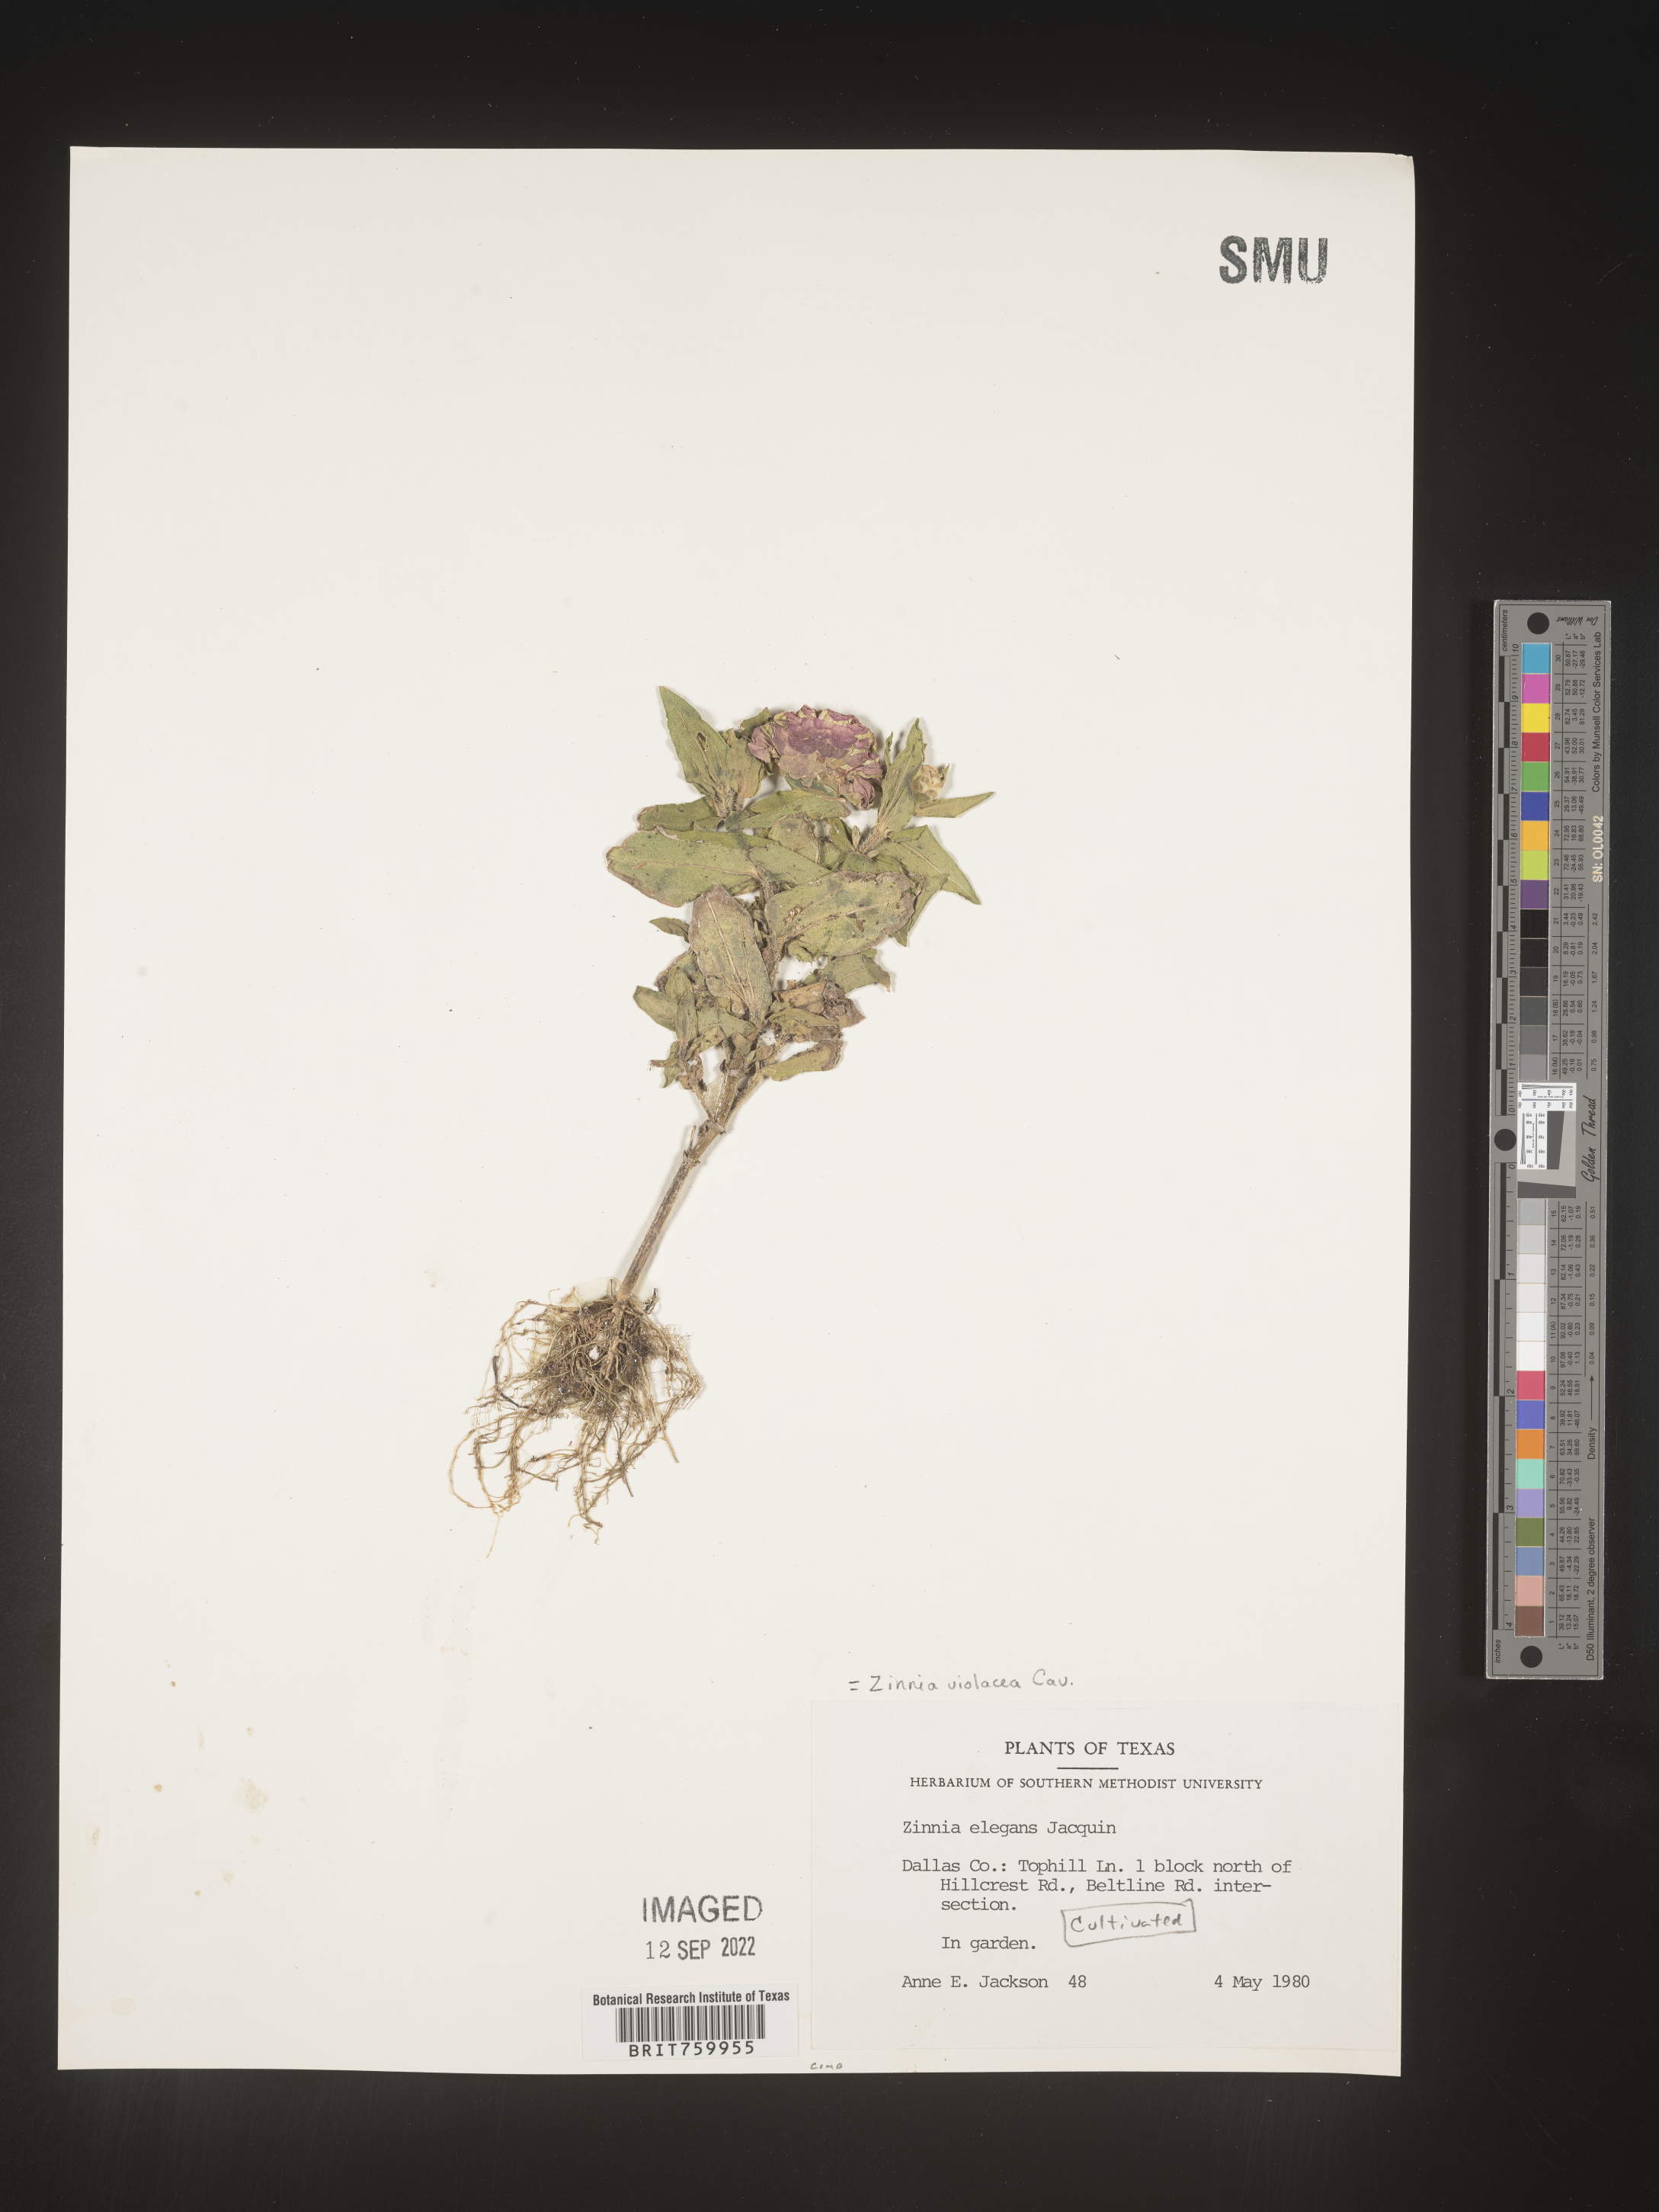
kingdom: Plantae
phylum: Tracheophyta
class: Magnoliopsida
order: Asterales
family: Asteraceae
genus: Zinnia
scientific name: Zinnia
